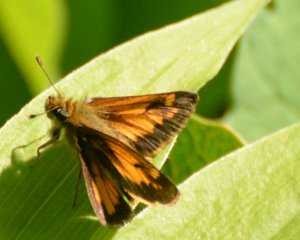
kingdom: Animalia
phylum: Arthropoda
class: Insecta
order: Lepidoptera
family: Hesperiidae
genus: Lon
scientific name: Lon hobomok
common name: Hobomok Skipper
